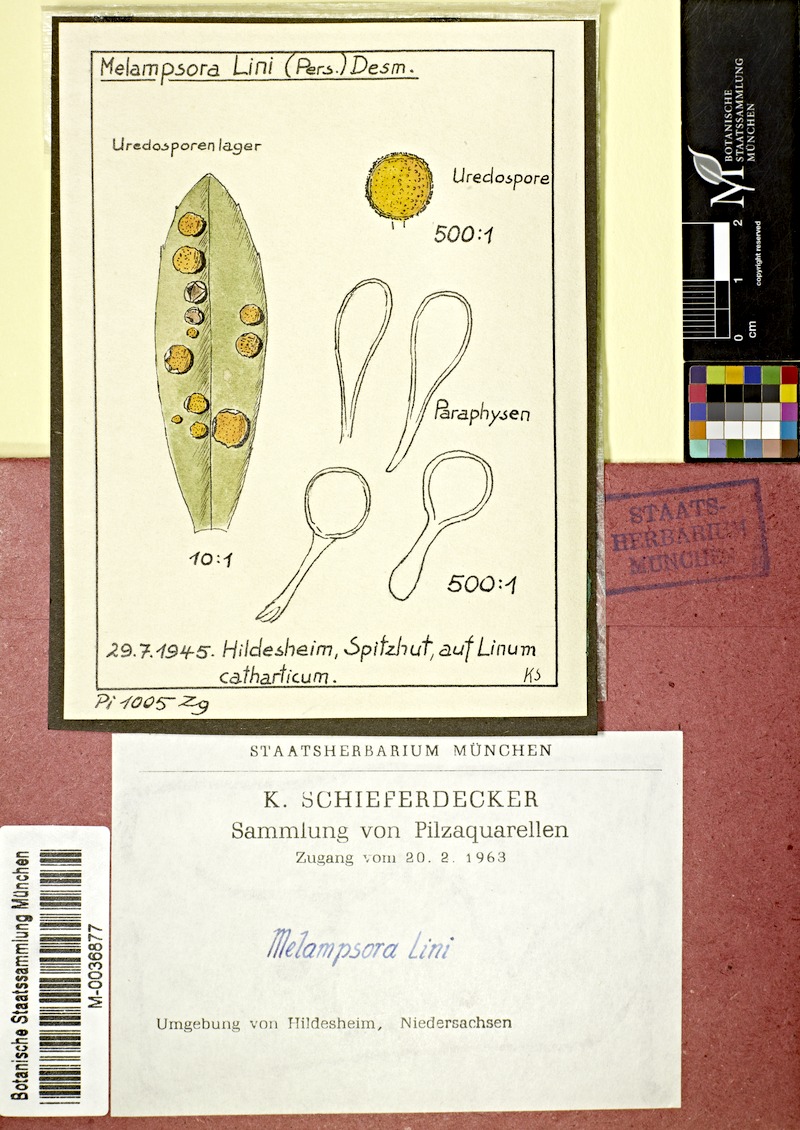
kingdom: Plantae
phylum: Tracheophyta
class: Magnoliopsida
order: Malpighiales
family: Linaceae
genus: Linum
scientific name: Linum catharticum
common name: Fairy flax
